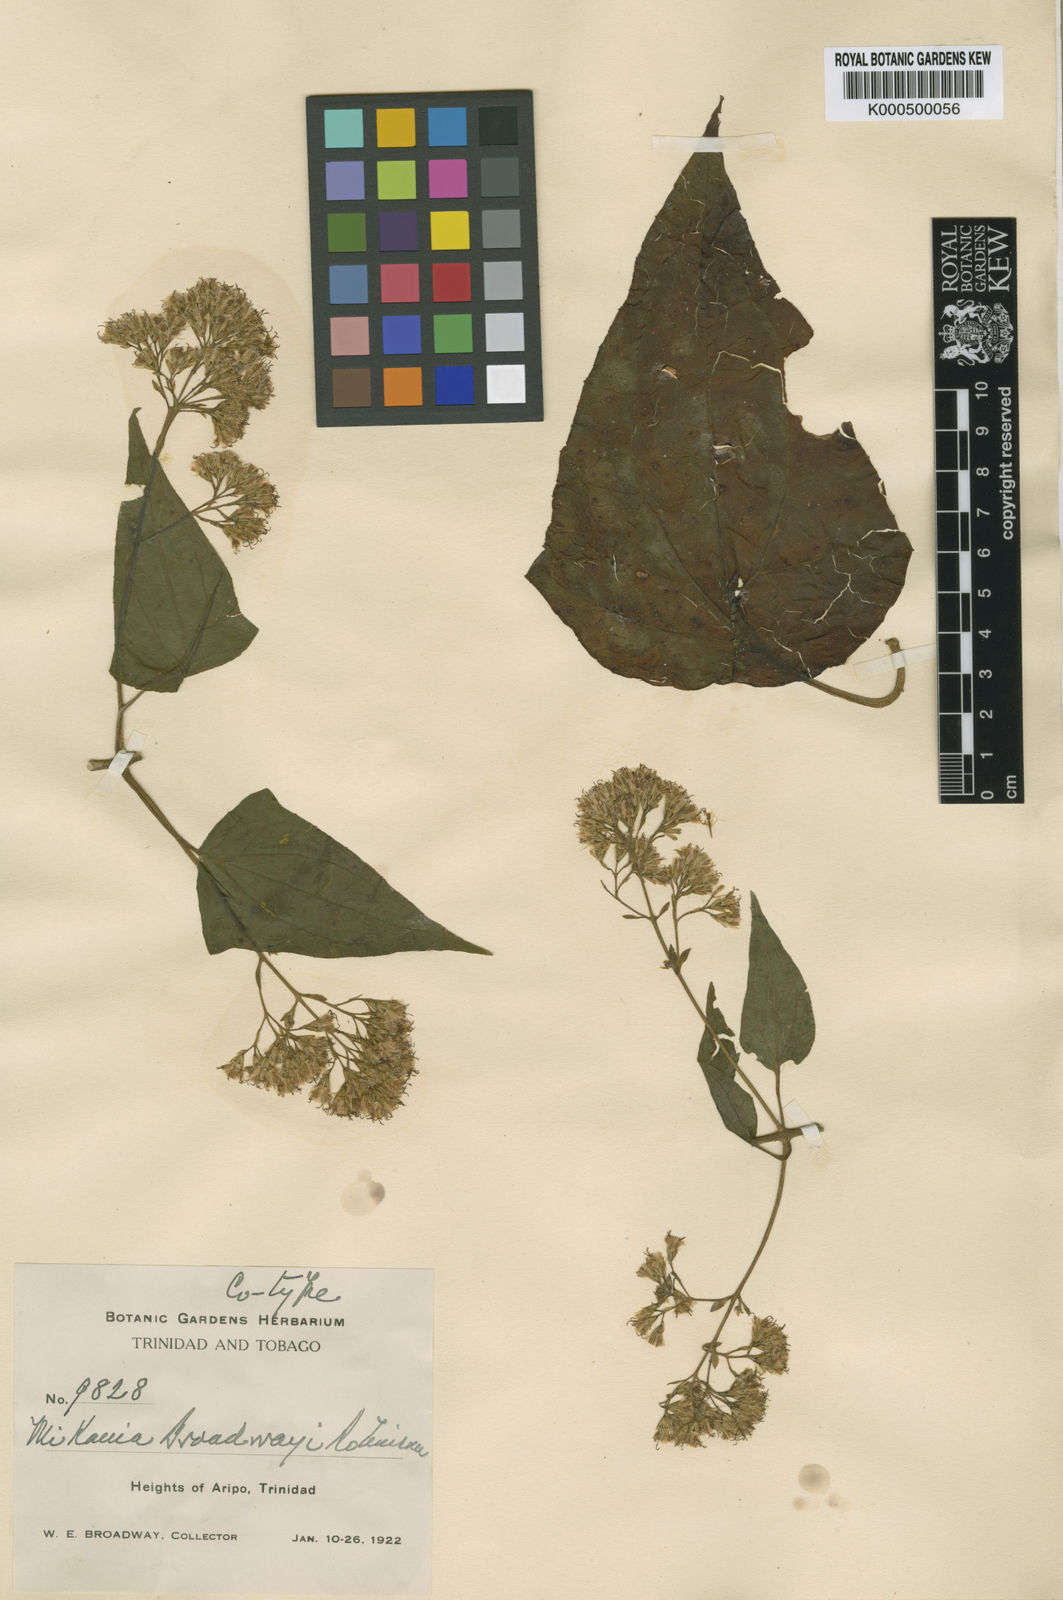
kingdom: Plantae
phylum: Tracheophyta
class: Magnoliopsida
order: Asterales
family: Asteraceae
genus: Mikania
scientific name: Mikania broadwayi
